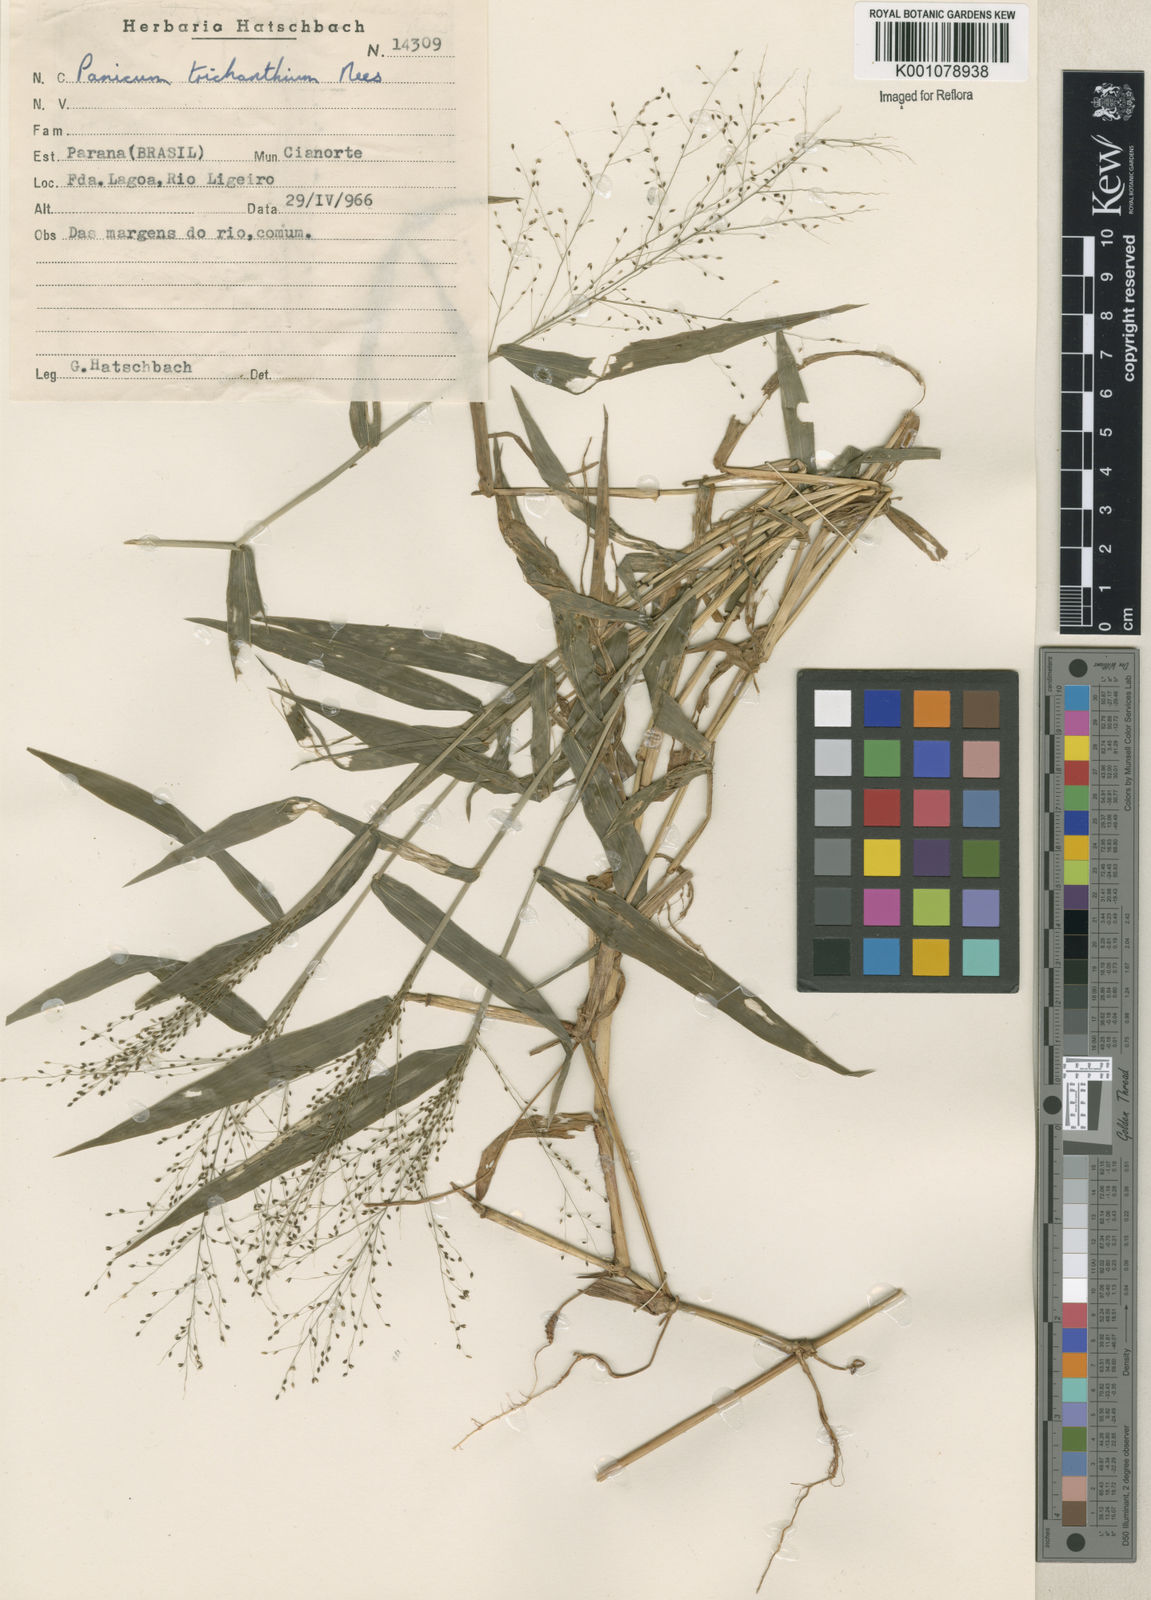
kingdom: Plantae
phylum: Tracheophyta
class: Liliopsida
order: Poales
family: Poaceae
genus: Panicum
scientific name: Panicum
